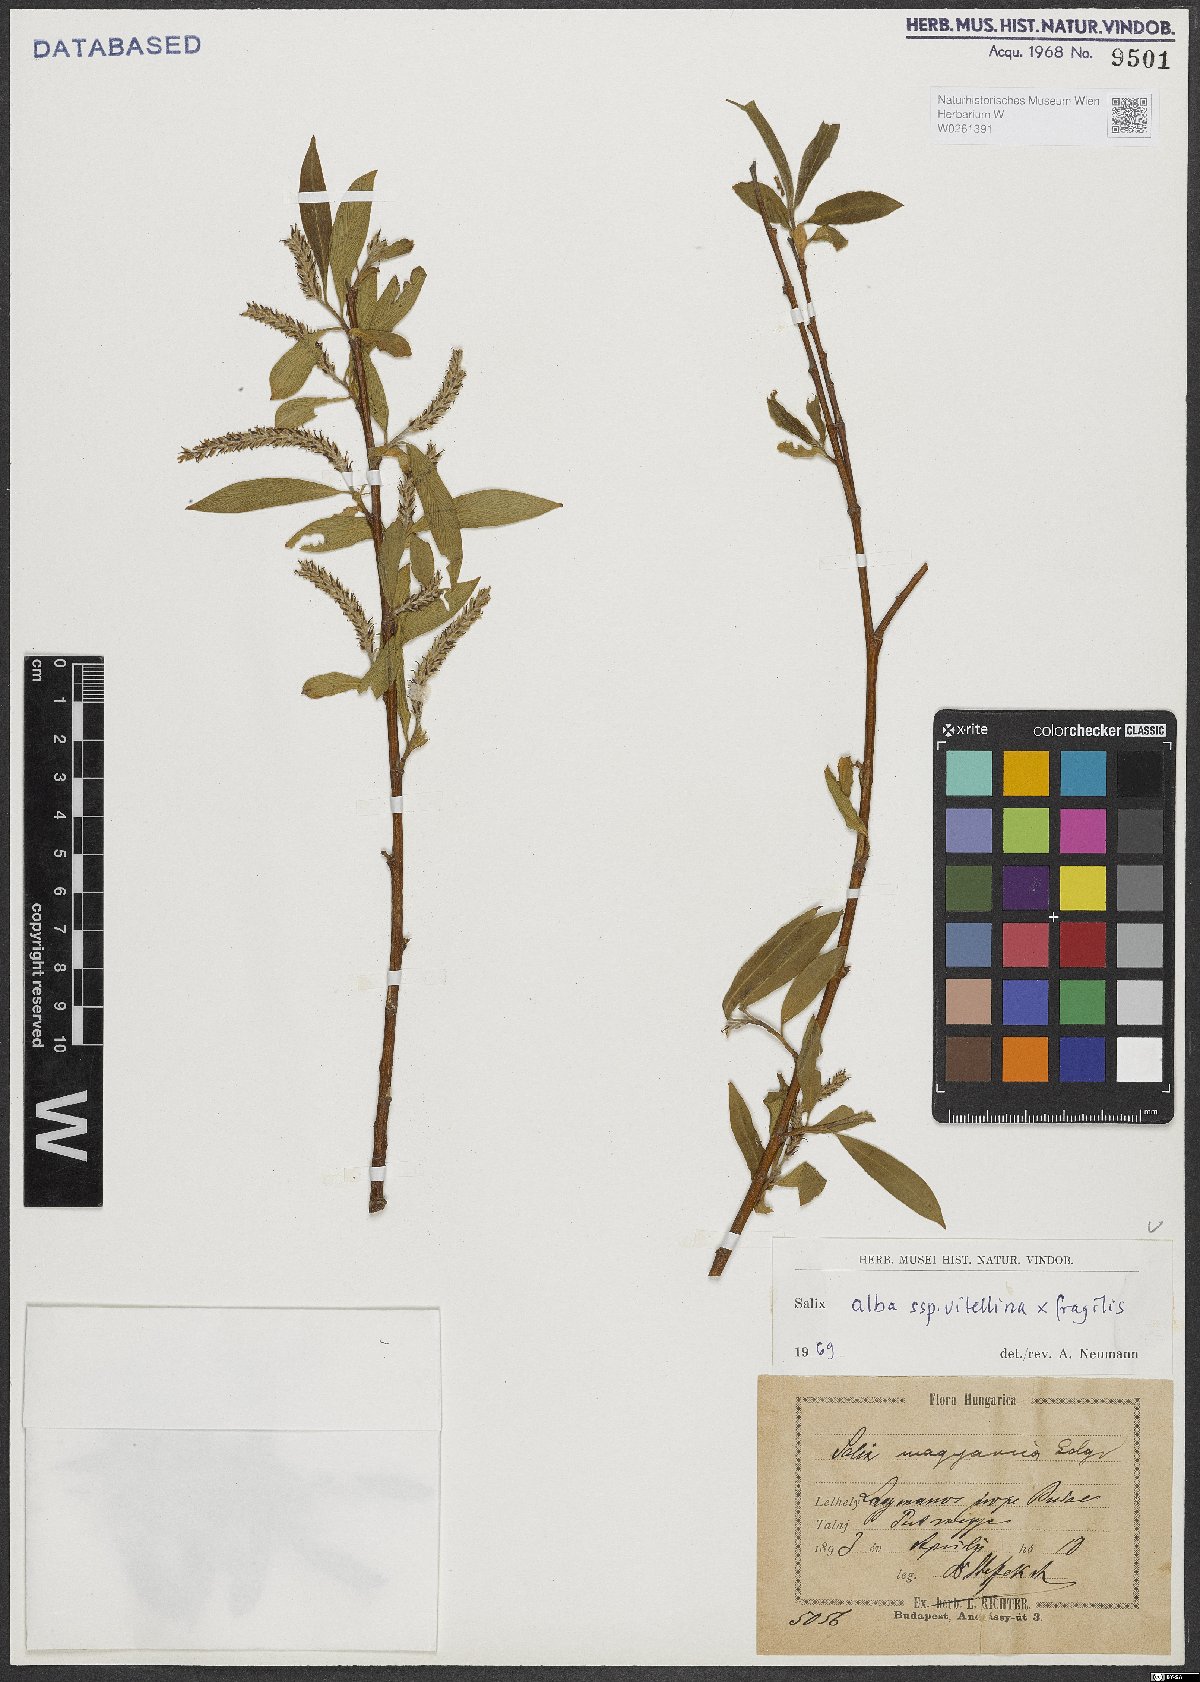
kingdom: Plantae
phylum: Tracheophyta
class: Magnoliopsida
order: Malpighiales
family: Salicaceae
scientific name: Salicaceae
